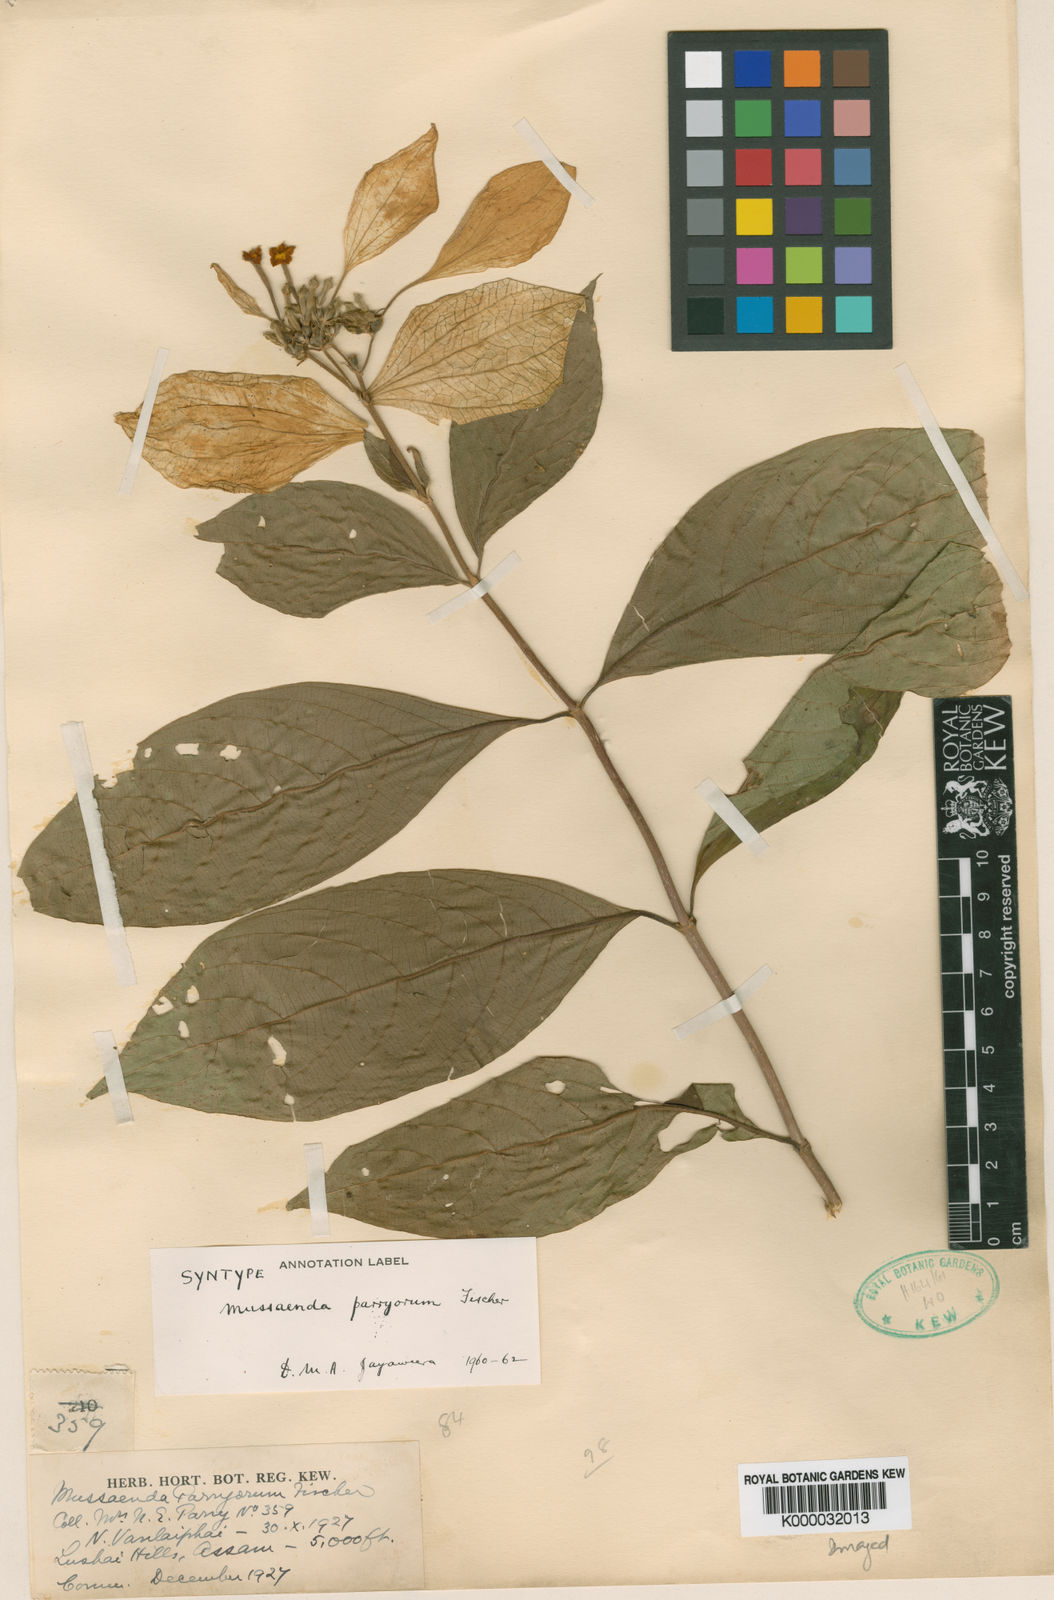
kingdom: Plantae
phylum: Tracheophyta
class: Magnoliopsida
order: Gentianales
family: Rubiaceae
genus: Mussaenda
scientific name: Mussaenda parryorum
